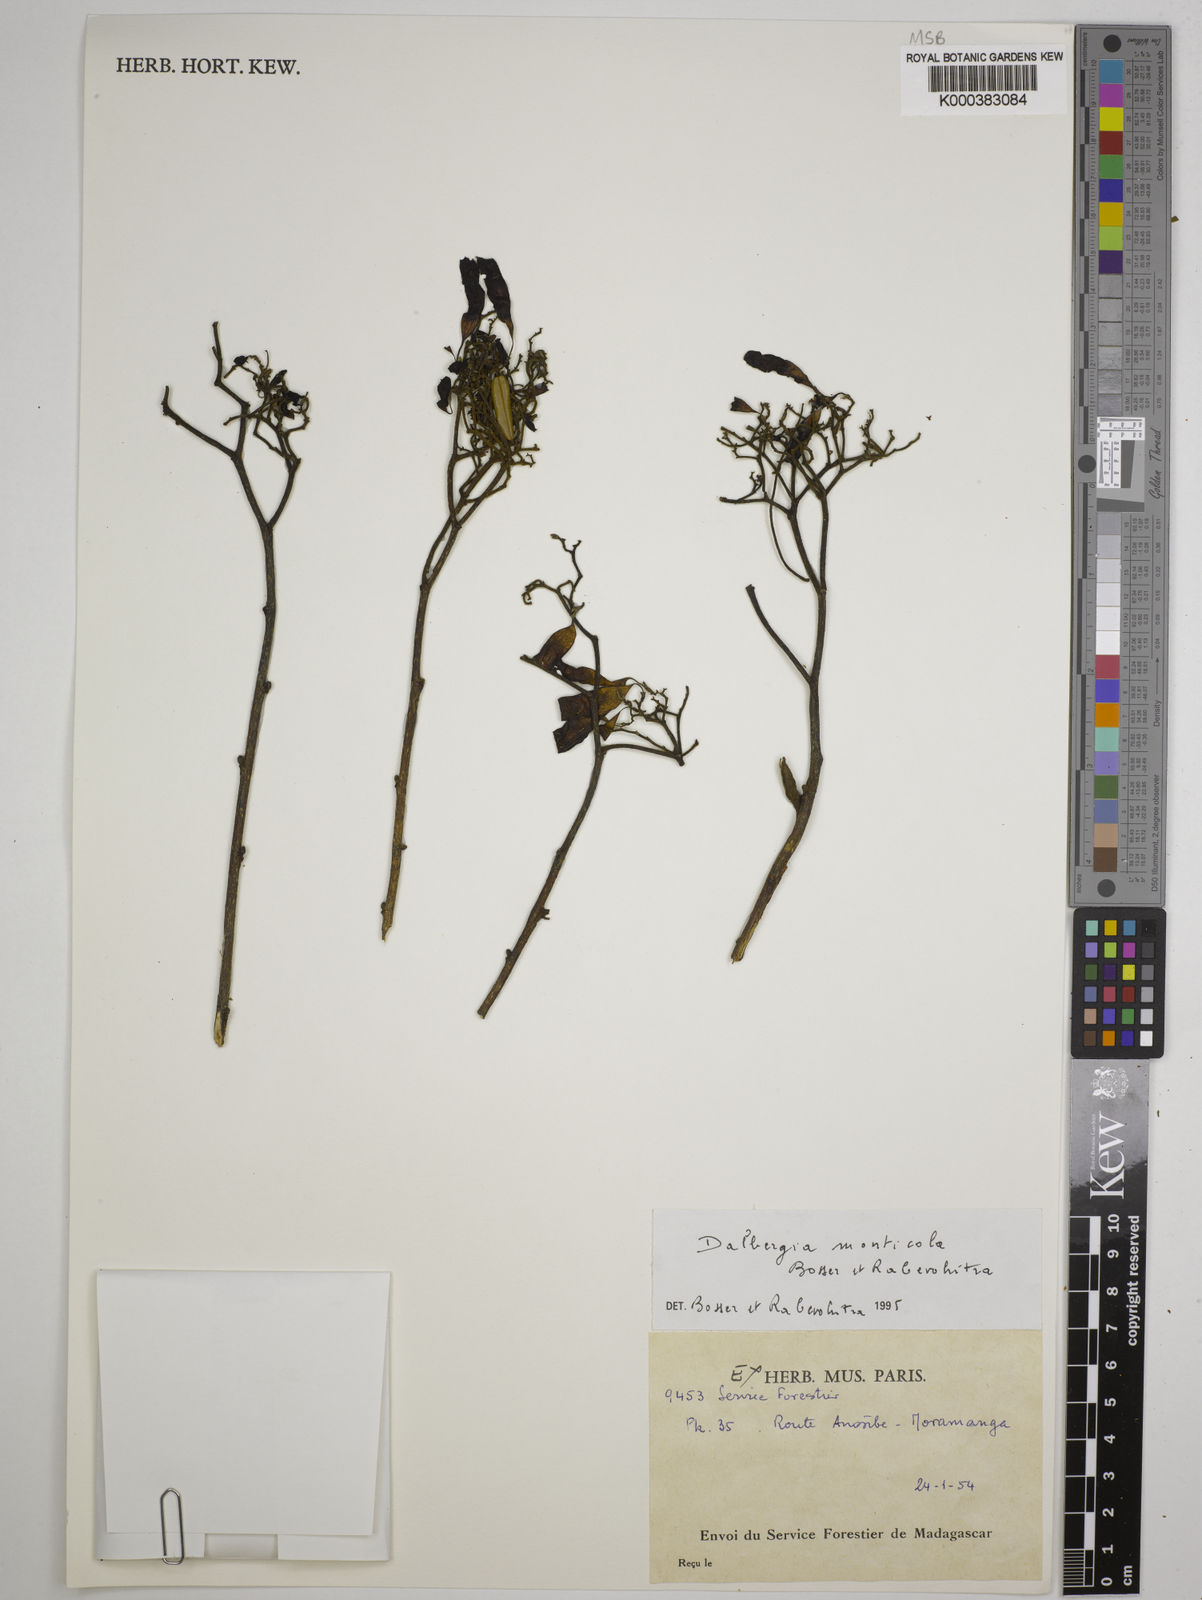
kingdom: Plantae
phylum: Tracheophyta
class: Magnoliopsida
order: Fabales
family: Fabaceae
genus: Dalbergia
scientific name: Dalbergia monticola
